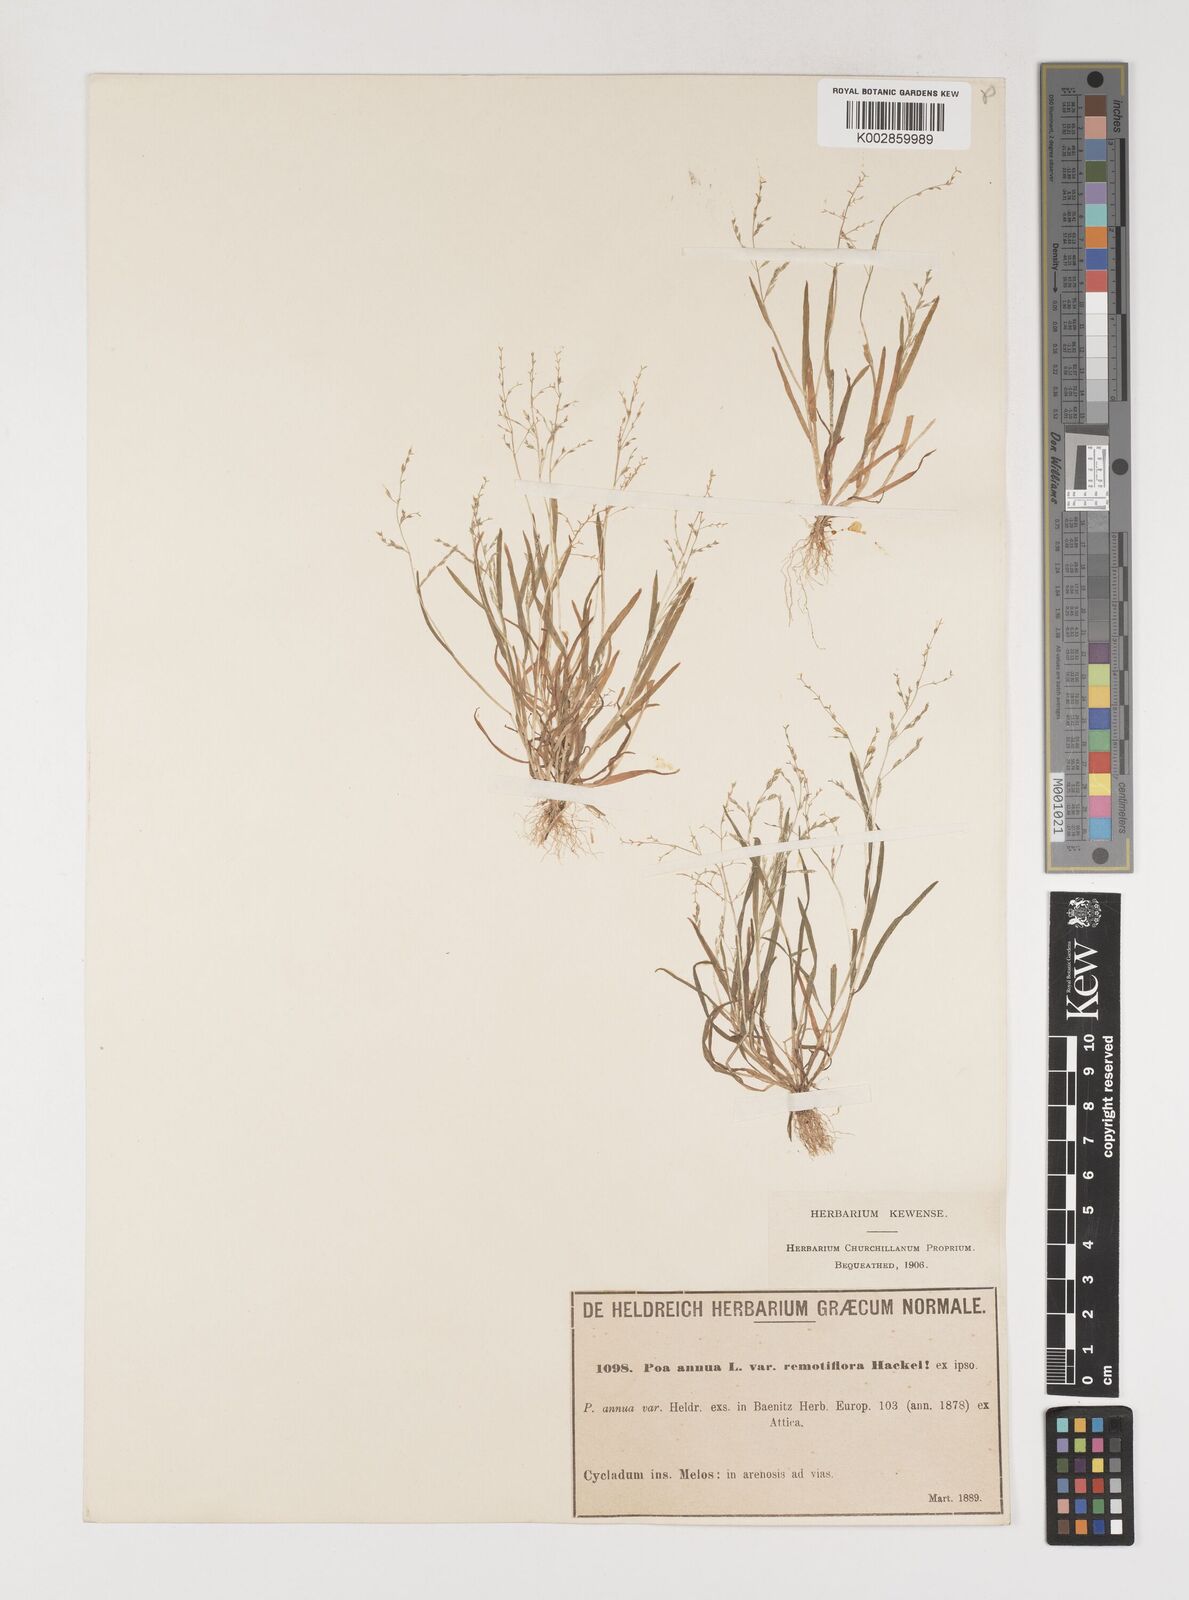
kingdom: Plantae
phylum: Tracheophyta
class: Liliopsida
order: Poales
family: Poaceae
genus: Poa
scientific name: Poa infirma
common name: Weak bluegrass
